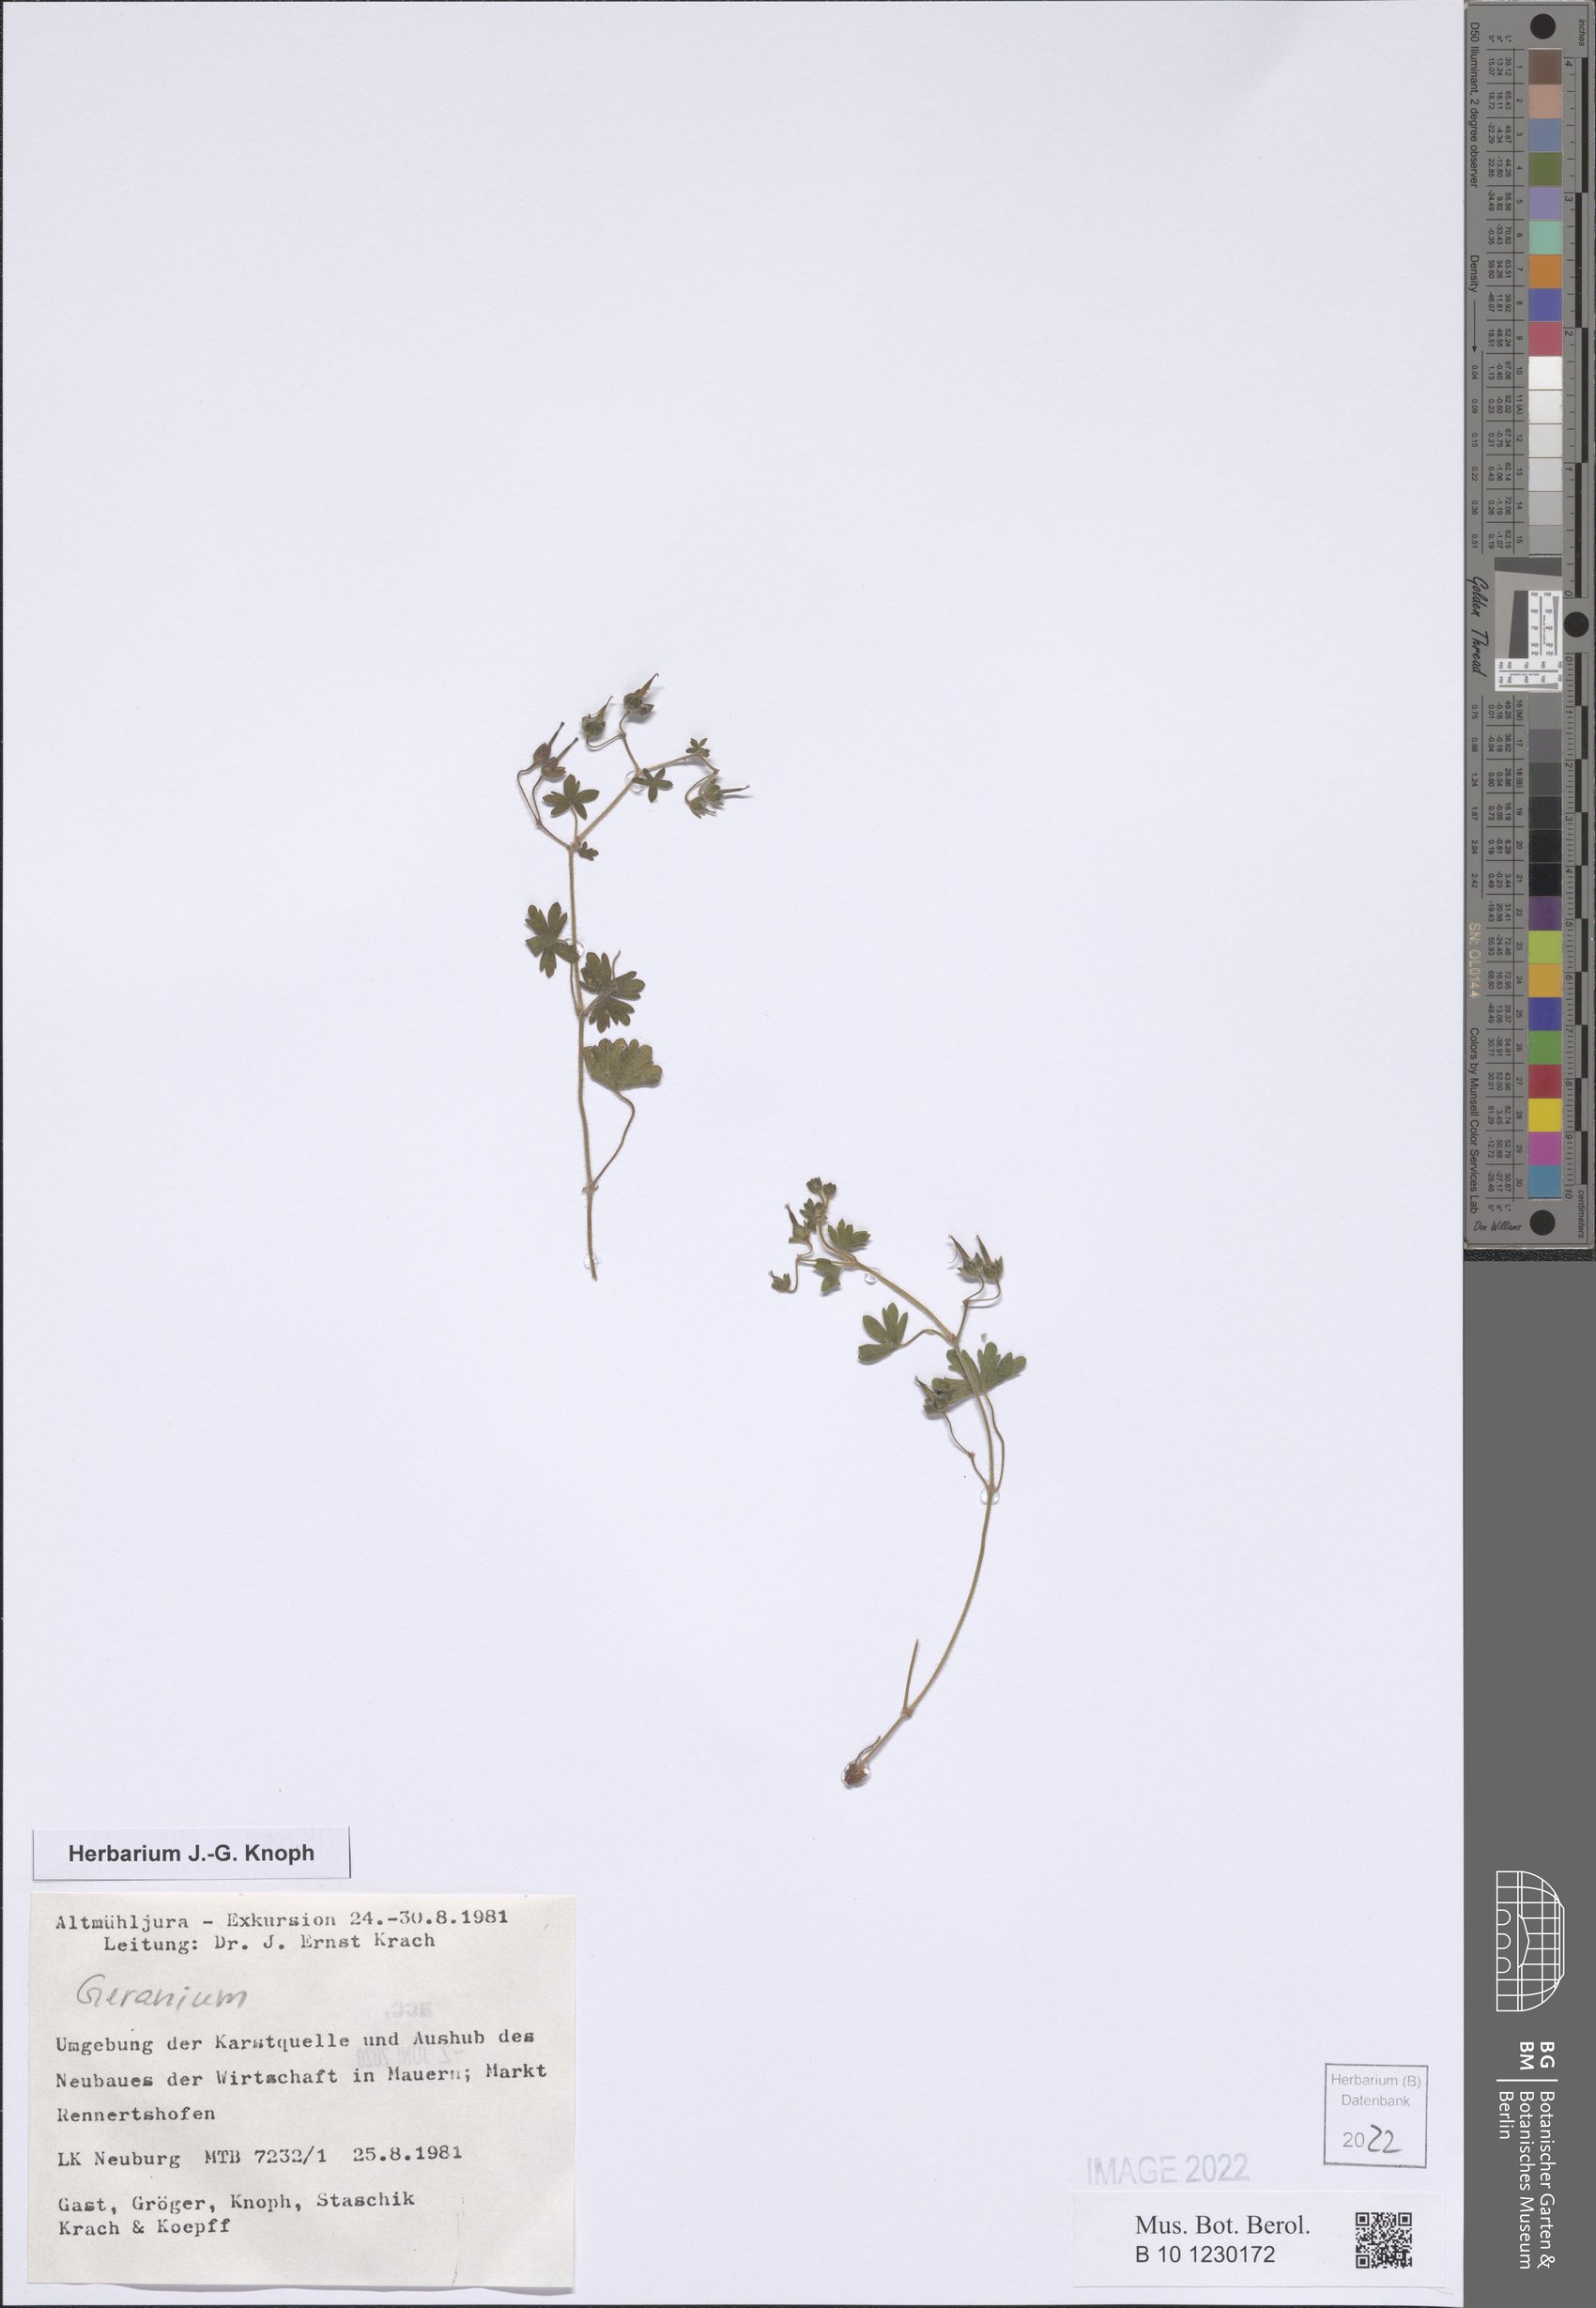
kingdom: Plantae
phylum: Tracheophyta
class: Magnoliopsida
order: Geraniales
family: Geraniaceae
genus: Geranium
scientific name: Geranium
